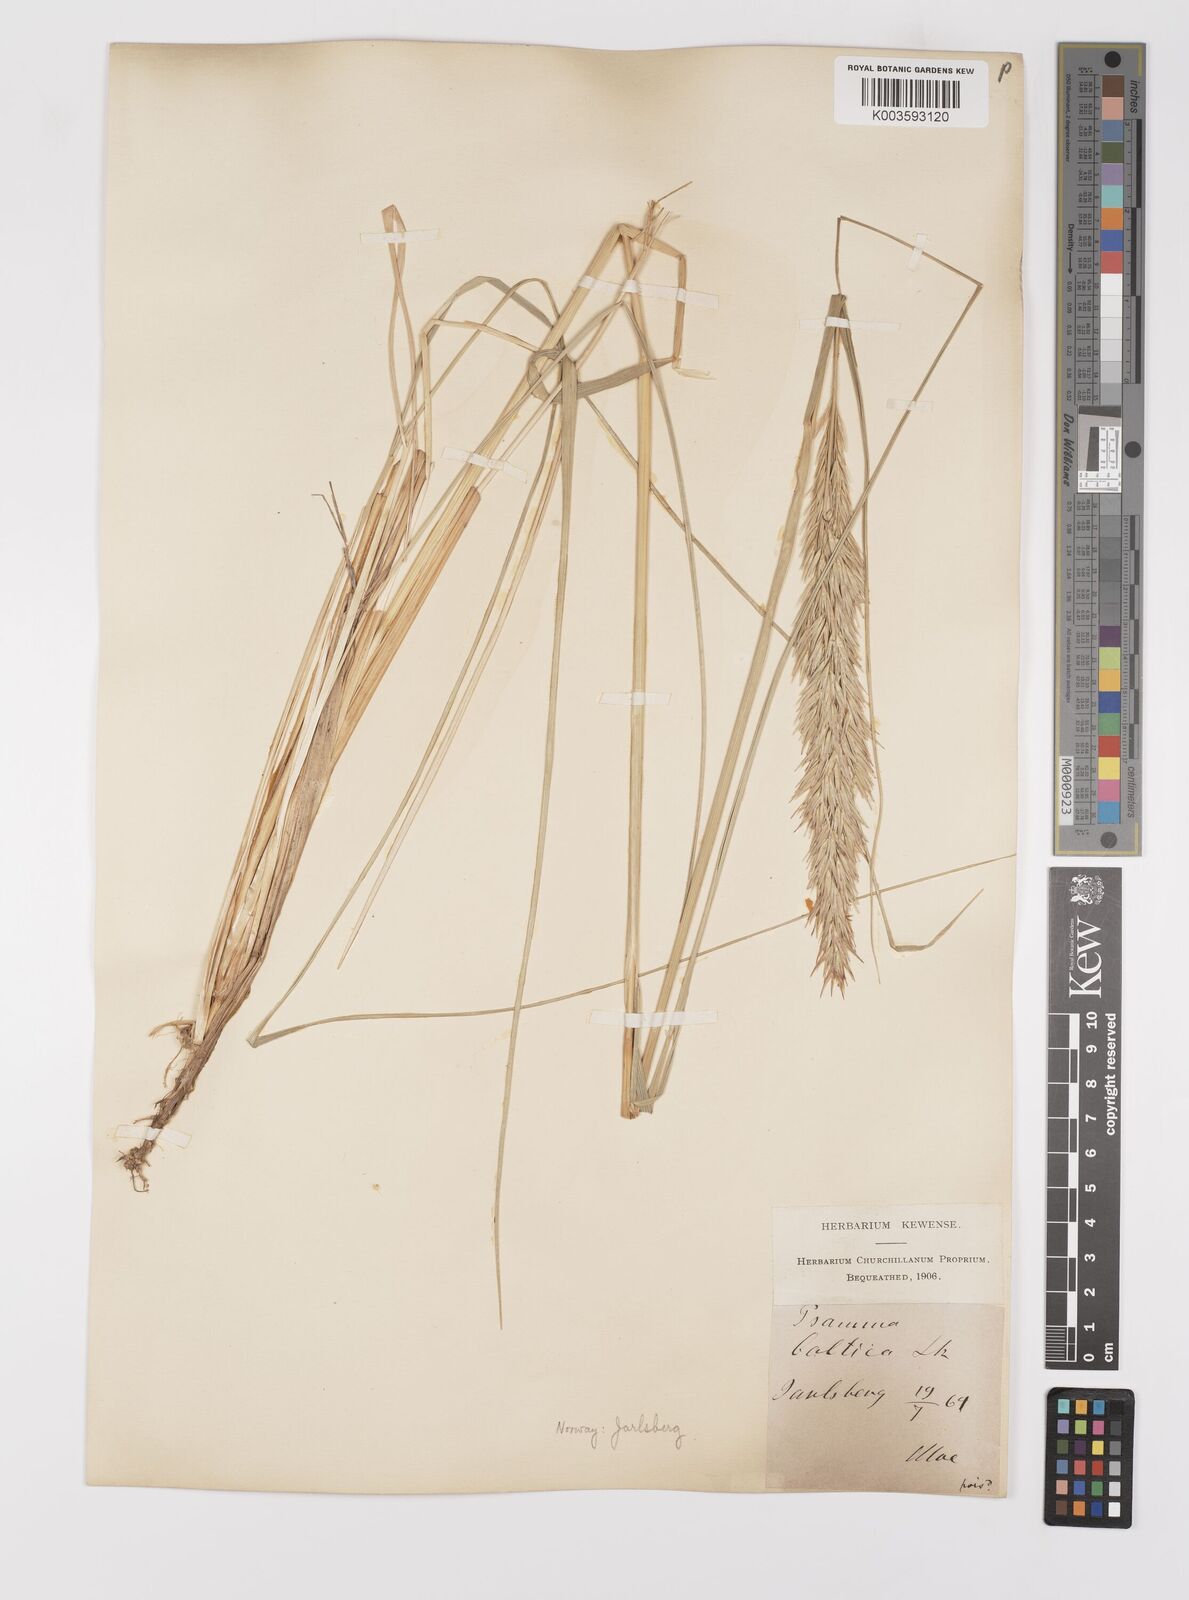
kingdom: Plantae
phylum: Tracheophyta
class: Liliopsida
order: Poales
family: Poaceae
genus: Calamagrostis
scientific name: Calamagrostis baltica
